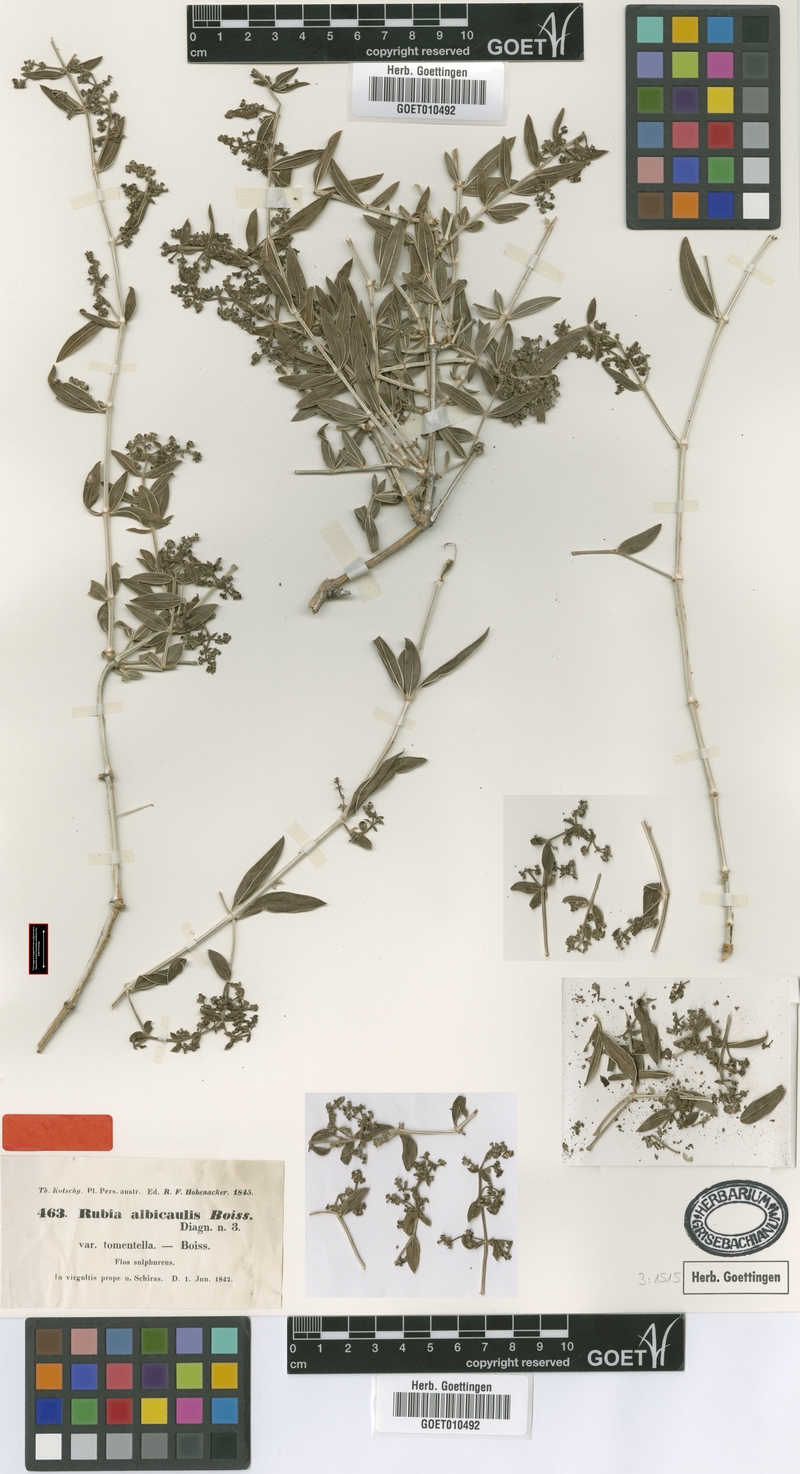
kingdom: Plantae
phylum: Tracheophyta
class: Magnoliopsida
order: Gentianales
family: Rubiaceae
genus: Rubia
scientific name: Rubia albicaulis
